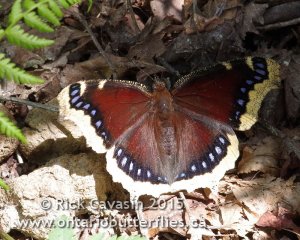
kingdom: Animalia
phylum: Arthropoda
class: Insecta
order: Lepidoptera
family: Nymphalidae
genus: Nymphalis
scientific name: Nymphalis antiopa
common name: Mourning Cloak
